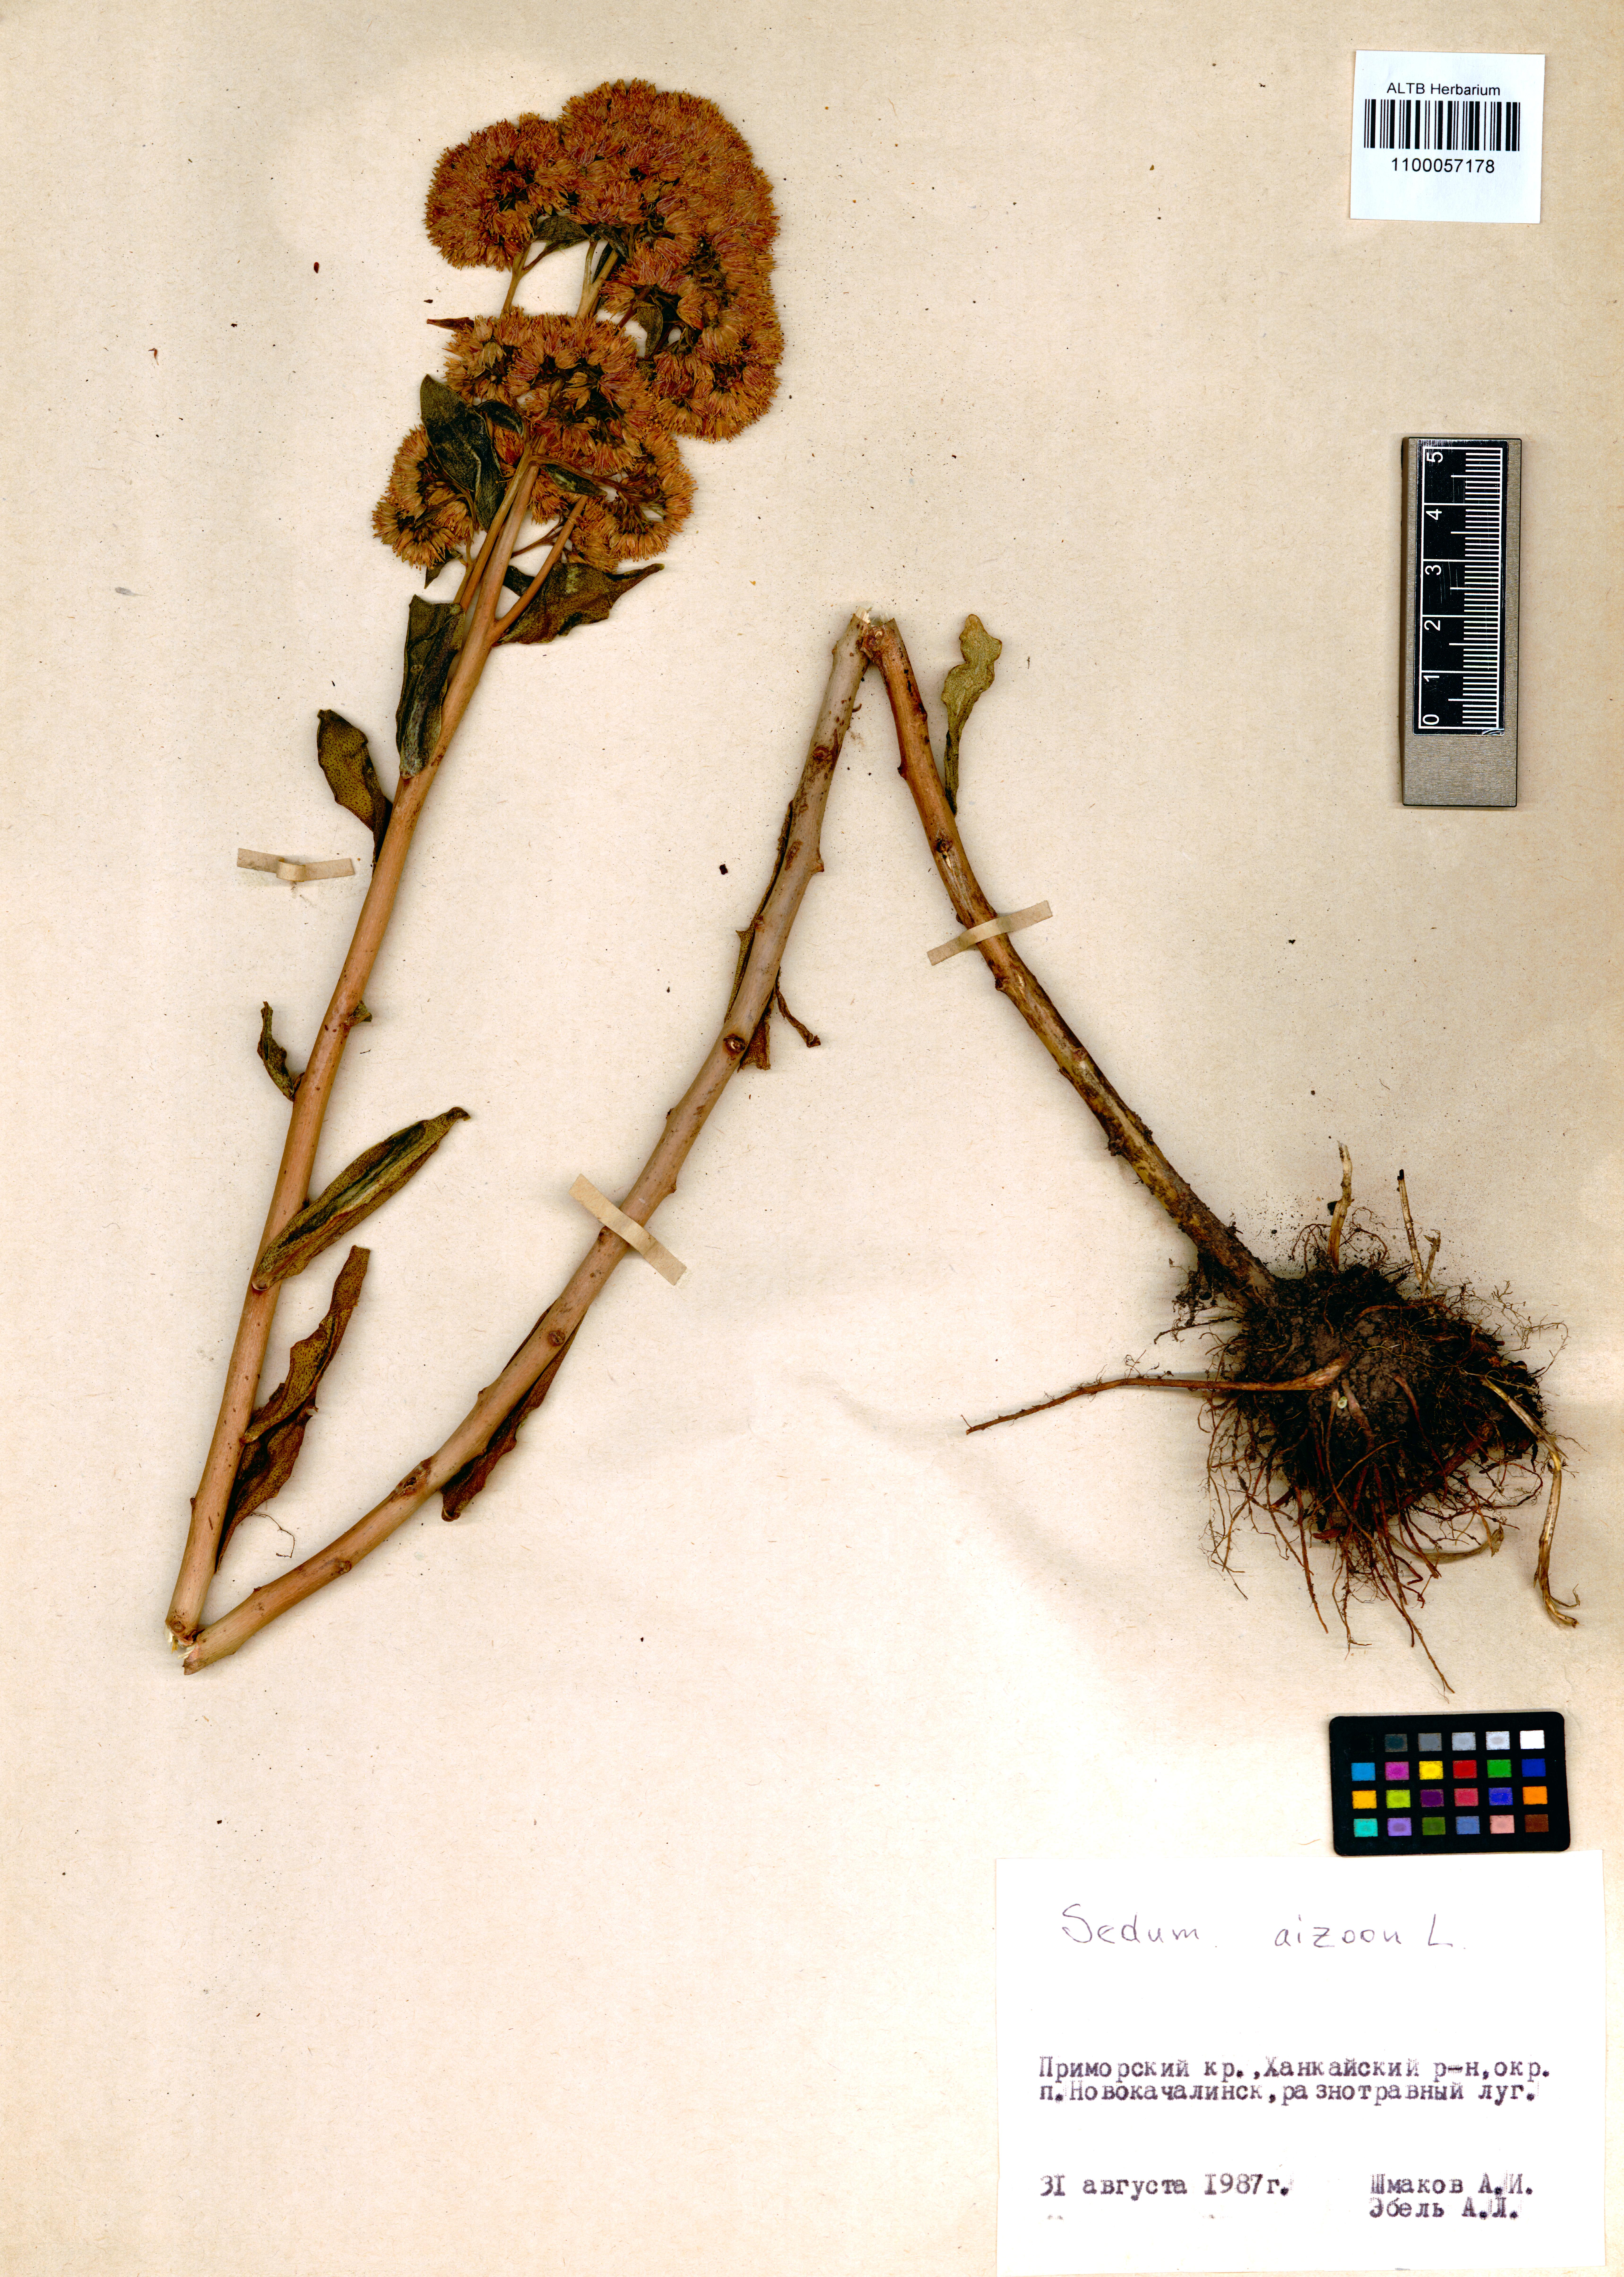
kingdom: Plantae
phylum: Tracheophyta
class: Magnoliopsida
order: Saxifragales
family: Crassulaceae
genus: Phedimus
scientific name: Phedimus aizoon
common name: Orpin aizoon
